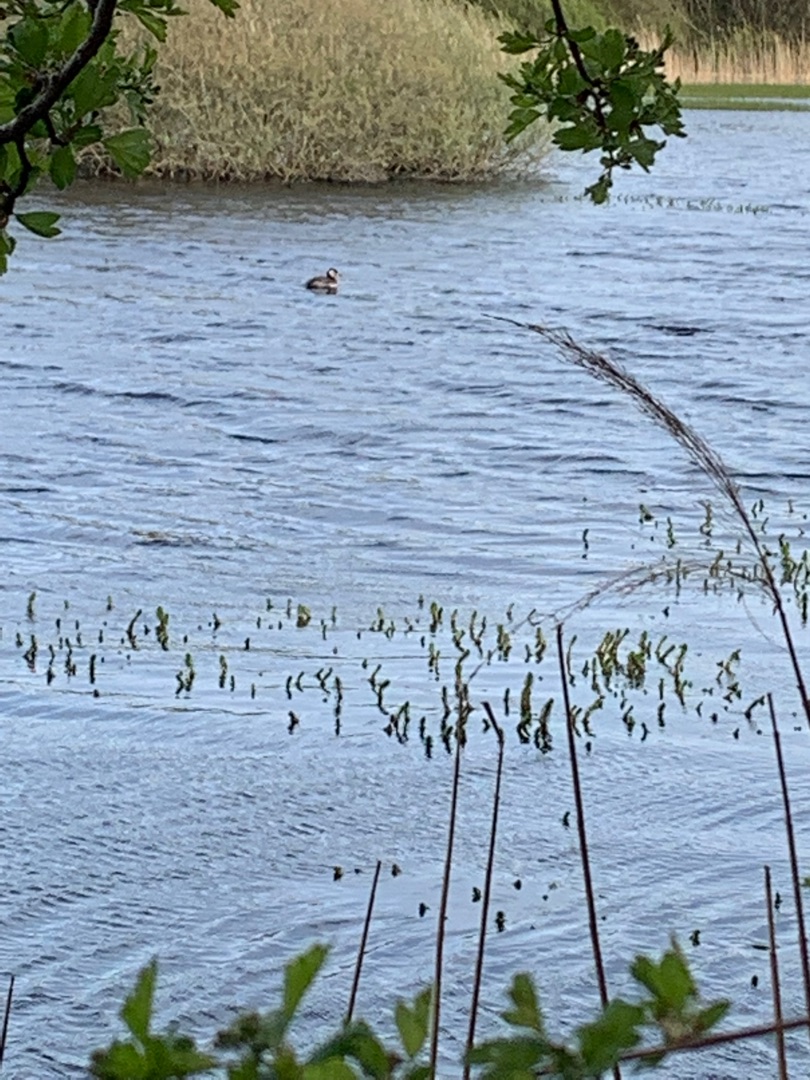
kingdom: Animalia
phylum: Chordata
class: Aves
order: Podicipediformes
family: Podicipedidae
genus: Podiceps
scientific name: Podiceps grisegena
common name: Gråstrubet lappedykker
